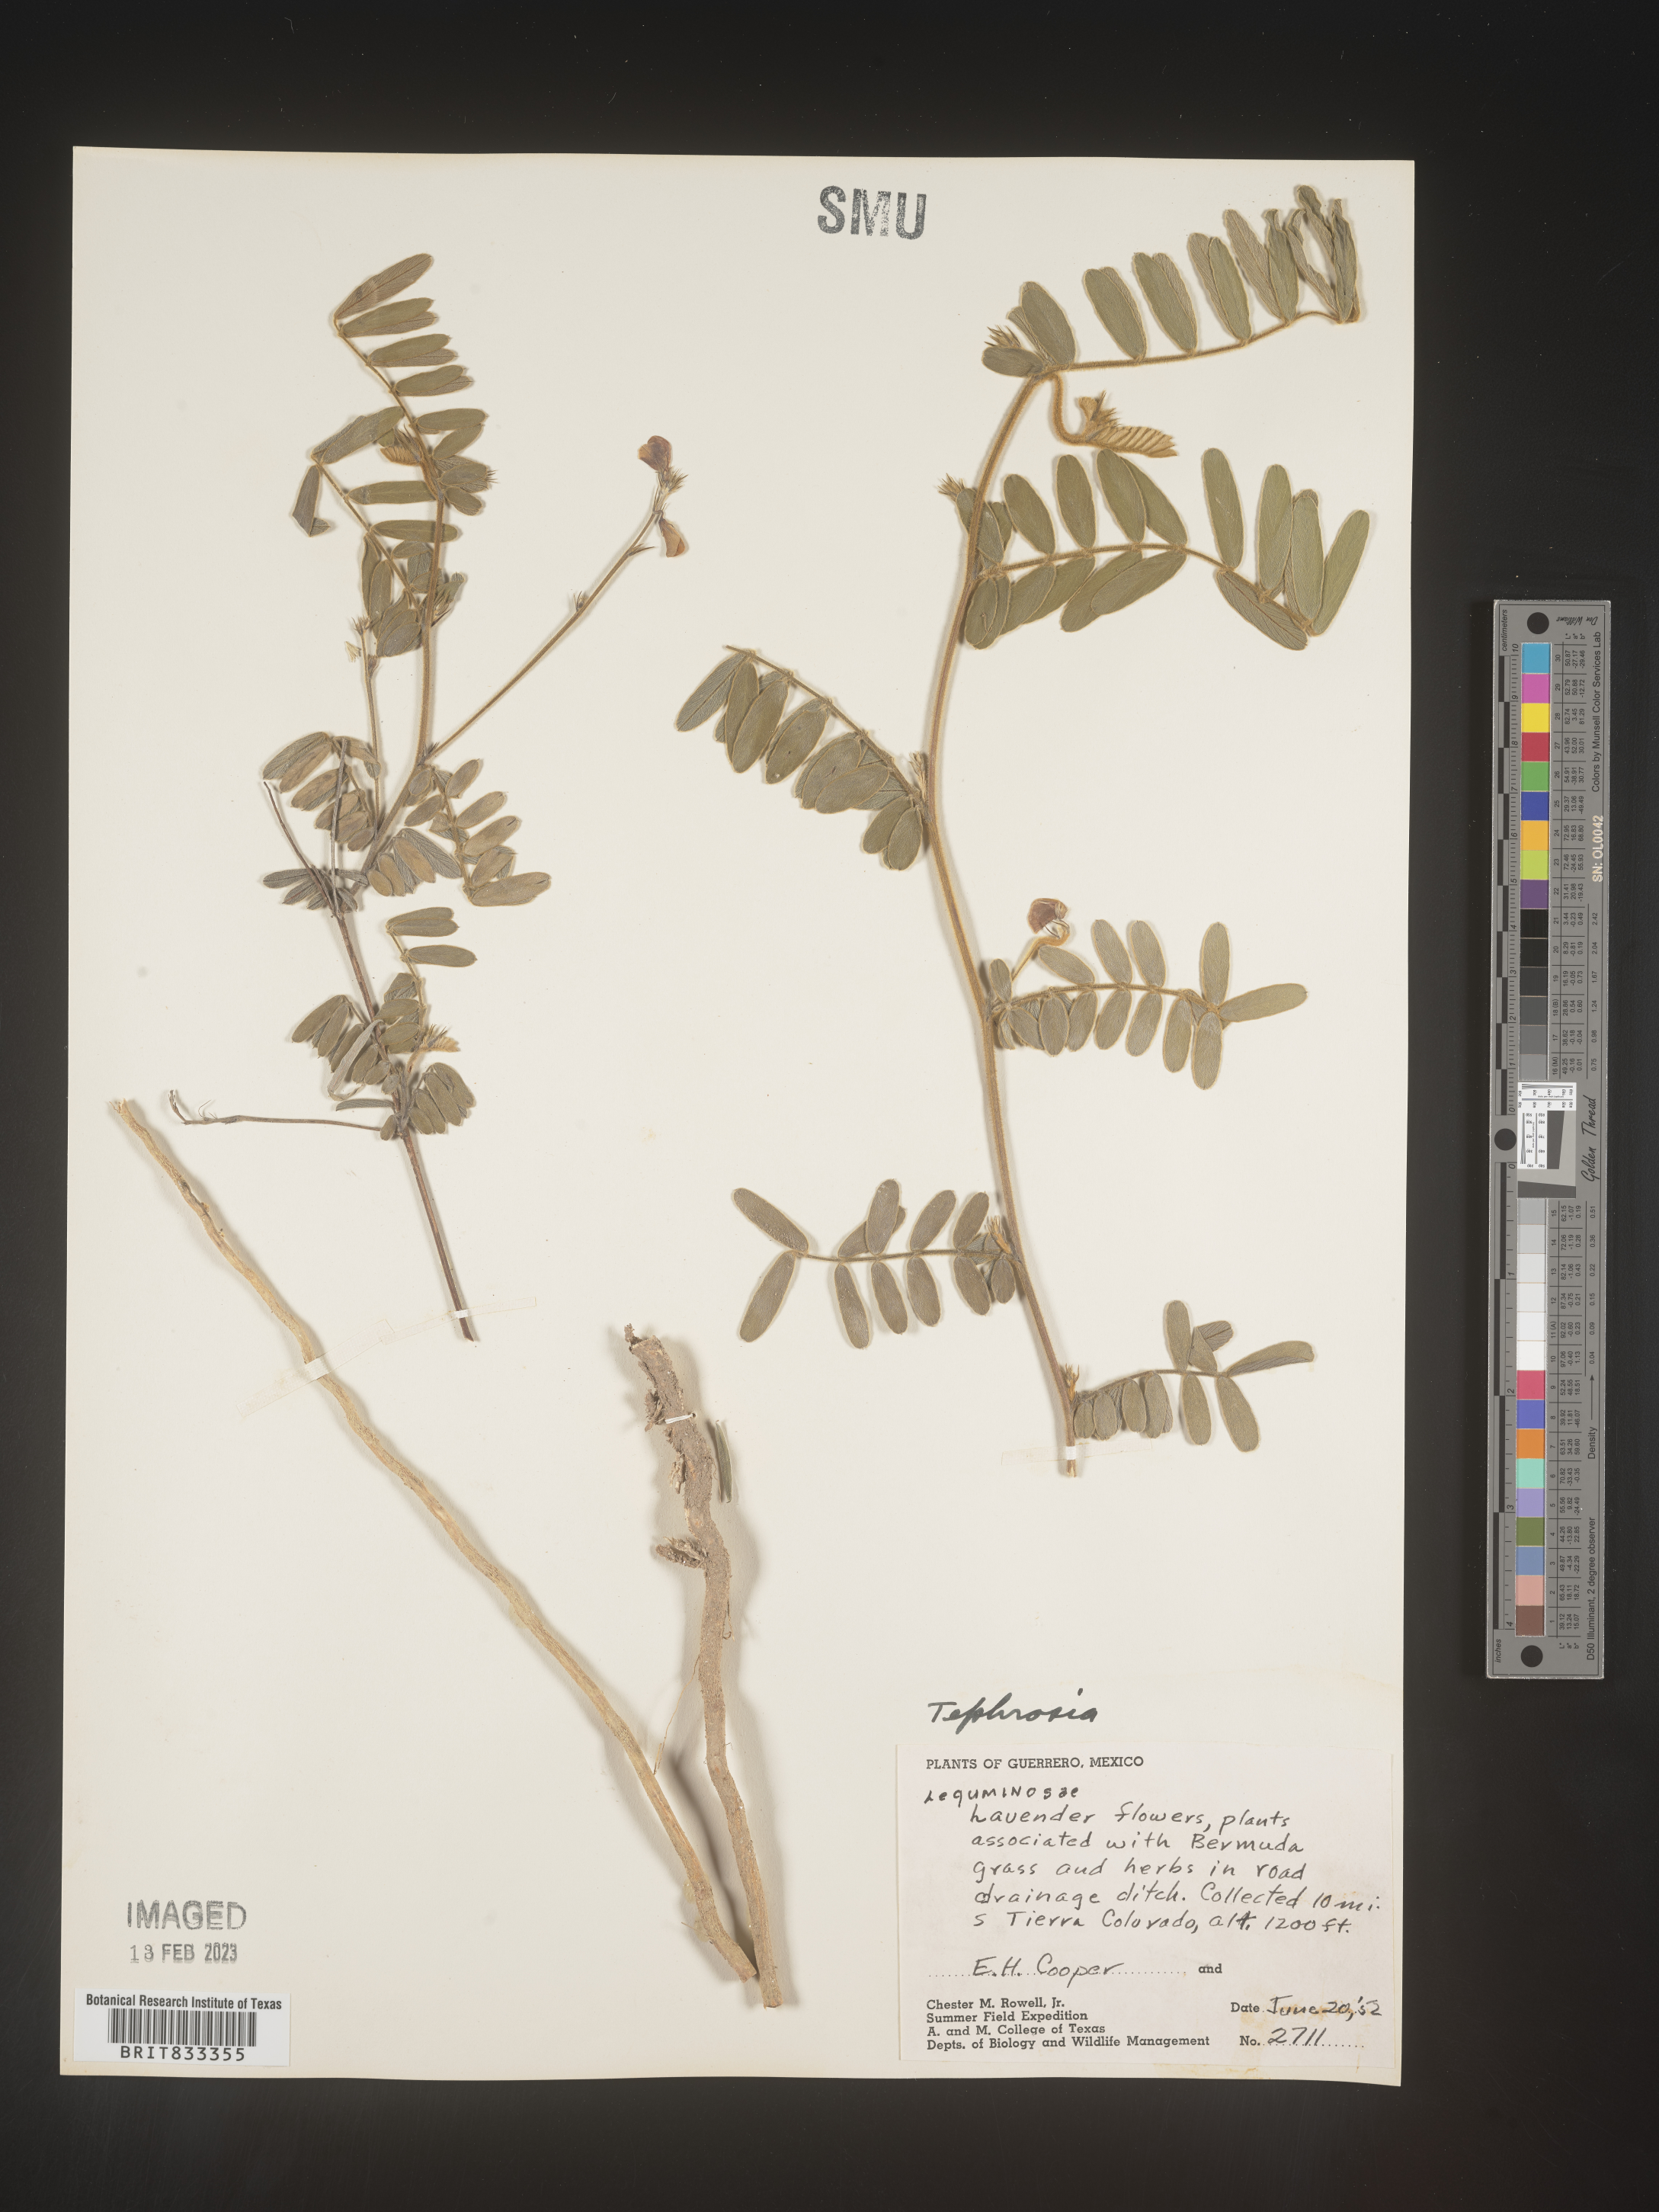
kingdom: Plantae
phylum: Tracheophyta
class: Magnoliopsida
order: Fabales
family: Fabaceae
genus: Tephrosia
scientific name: Tephrosia
